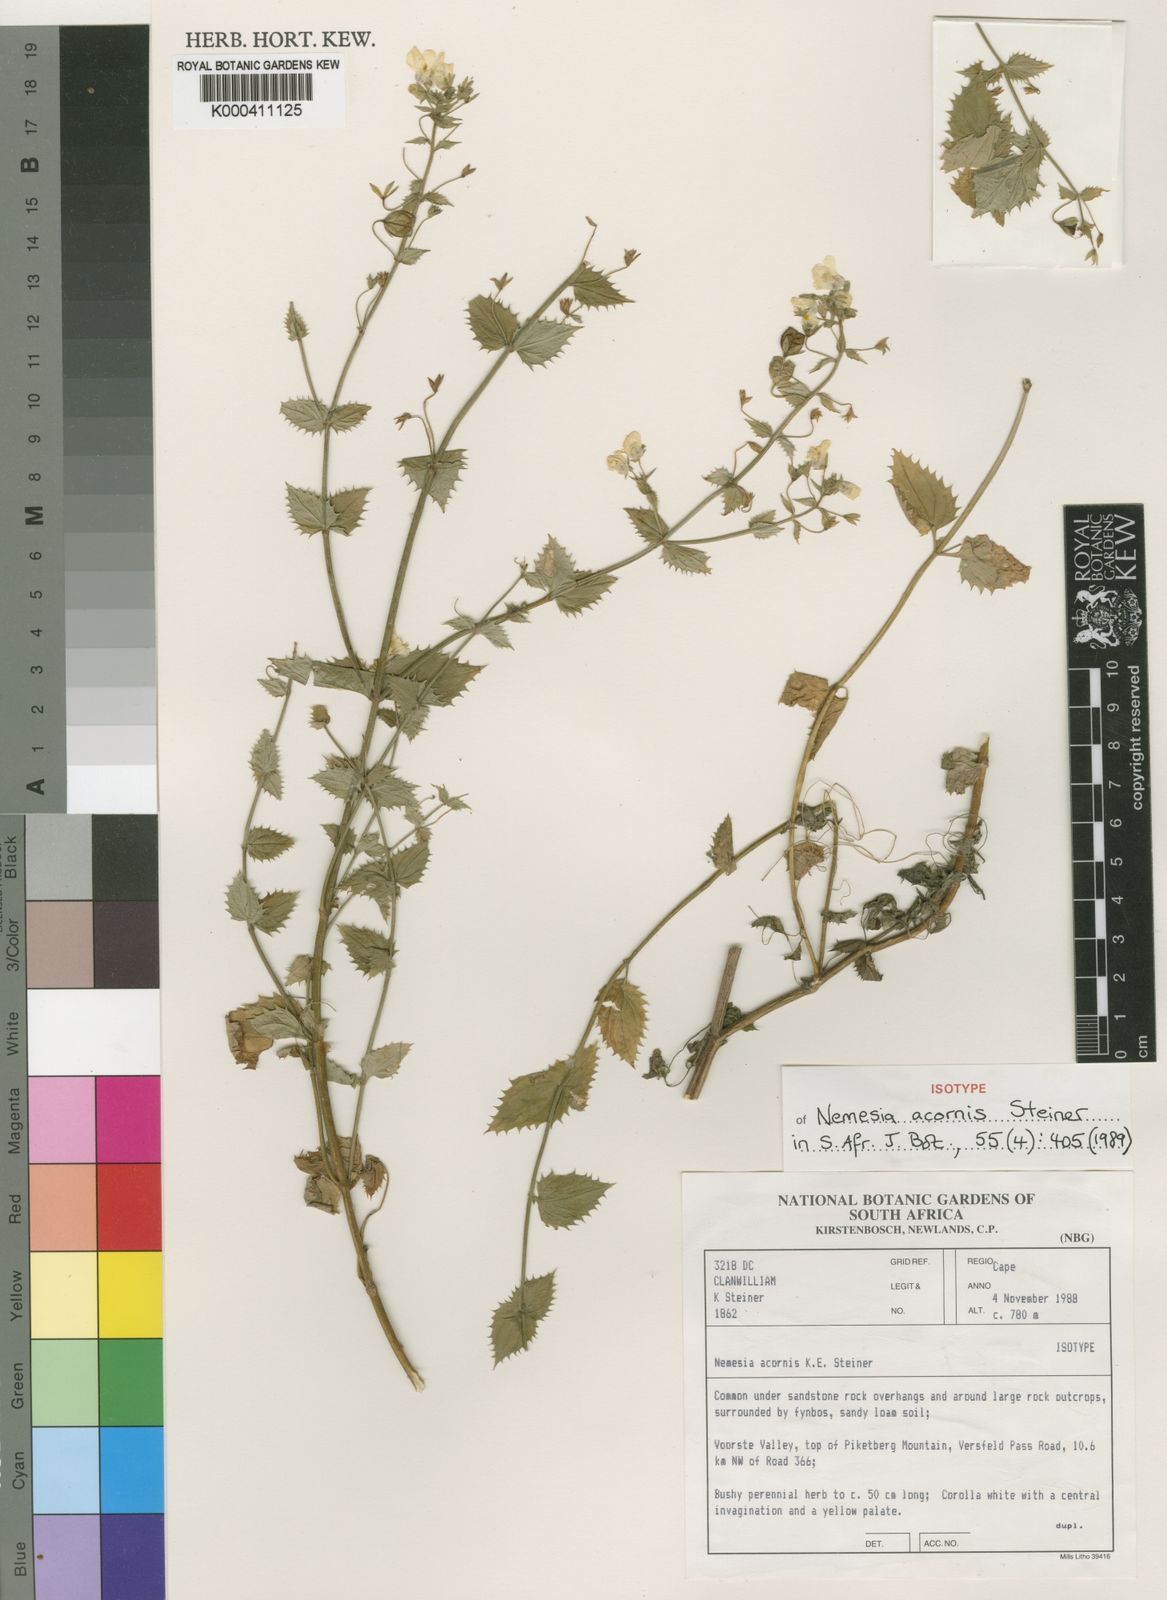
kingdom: Plantae
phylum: Tracheophyta
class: Magnoliopsida
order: Lamiales
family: Scrophulariaceae
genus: Nemesia
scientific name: Nemesia acornis
